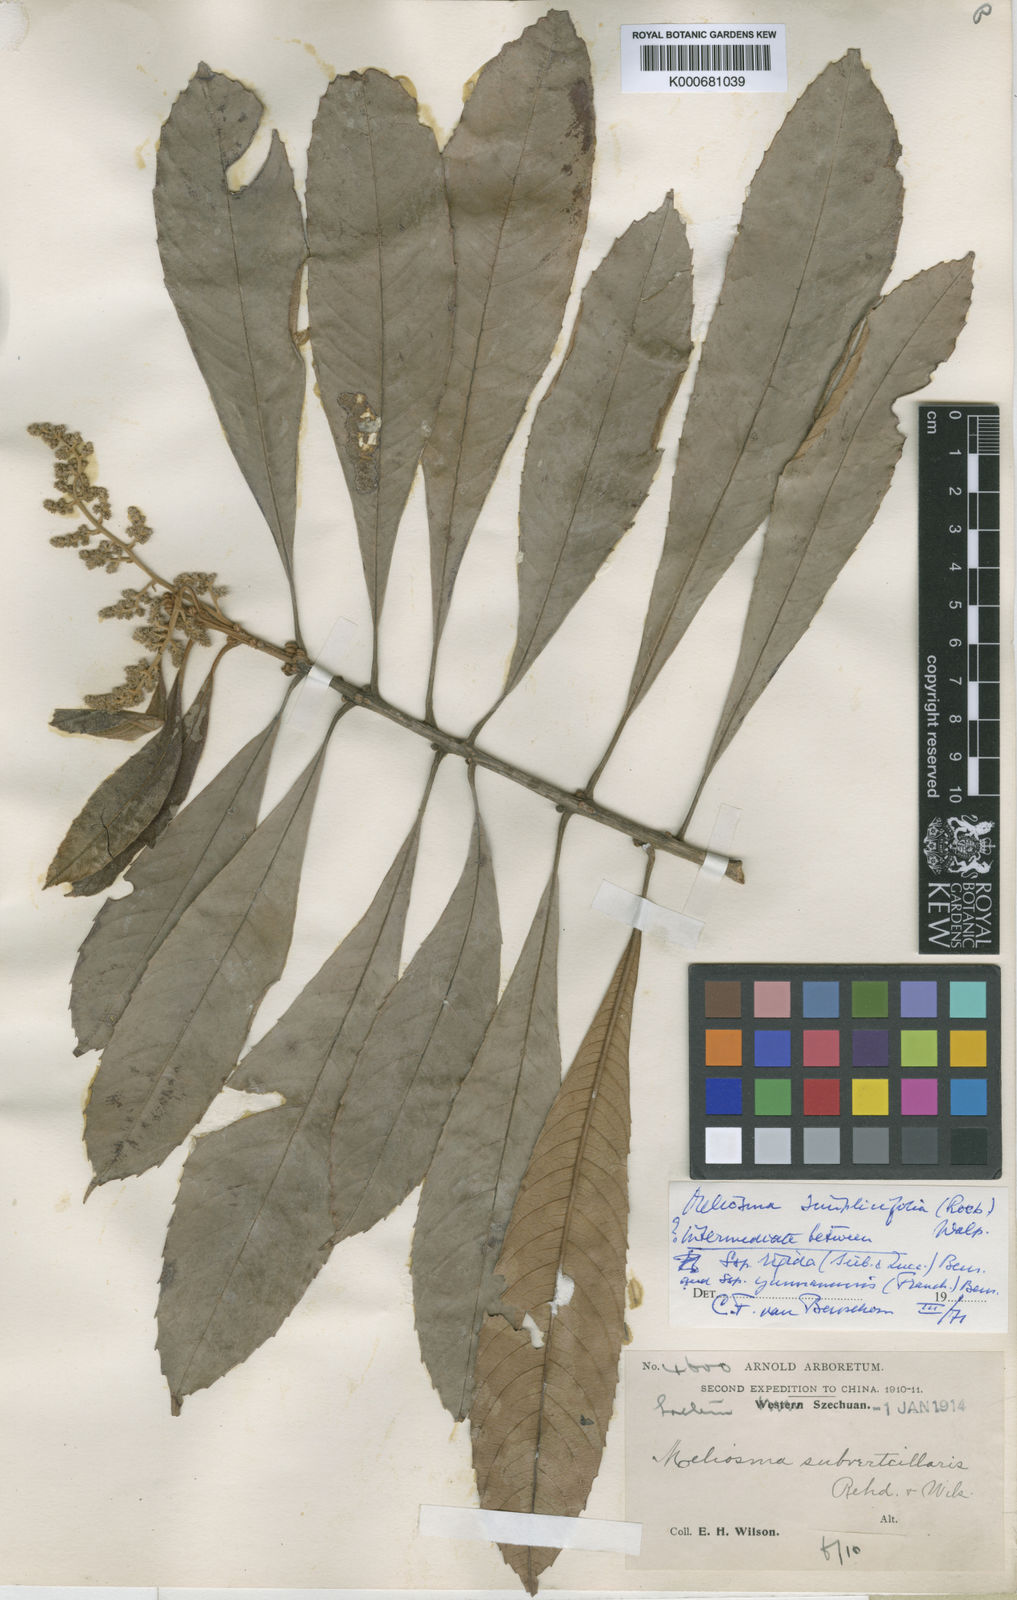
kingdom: Plantae
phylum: Tracheophyta
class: Magnoliopsida
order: Proteales
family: Sabiaceae
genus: Meliosma
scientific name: Meliosma yunnanensis
